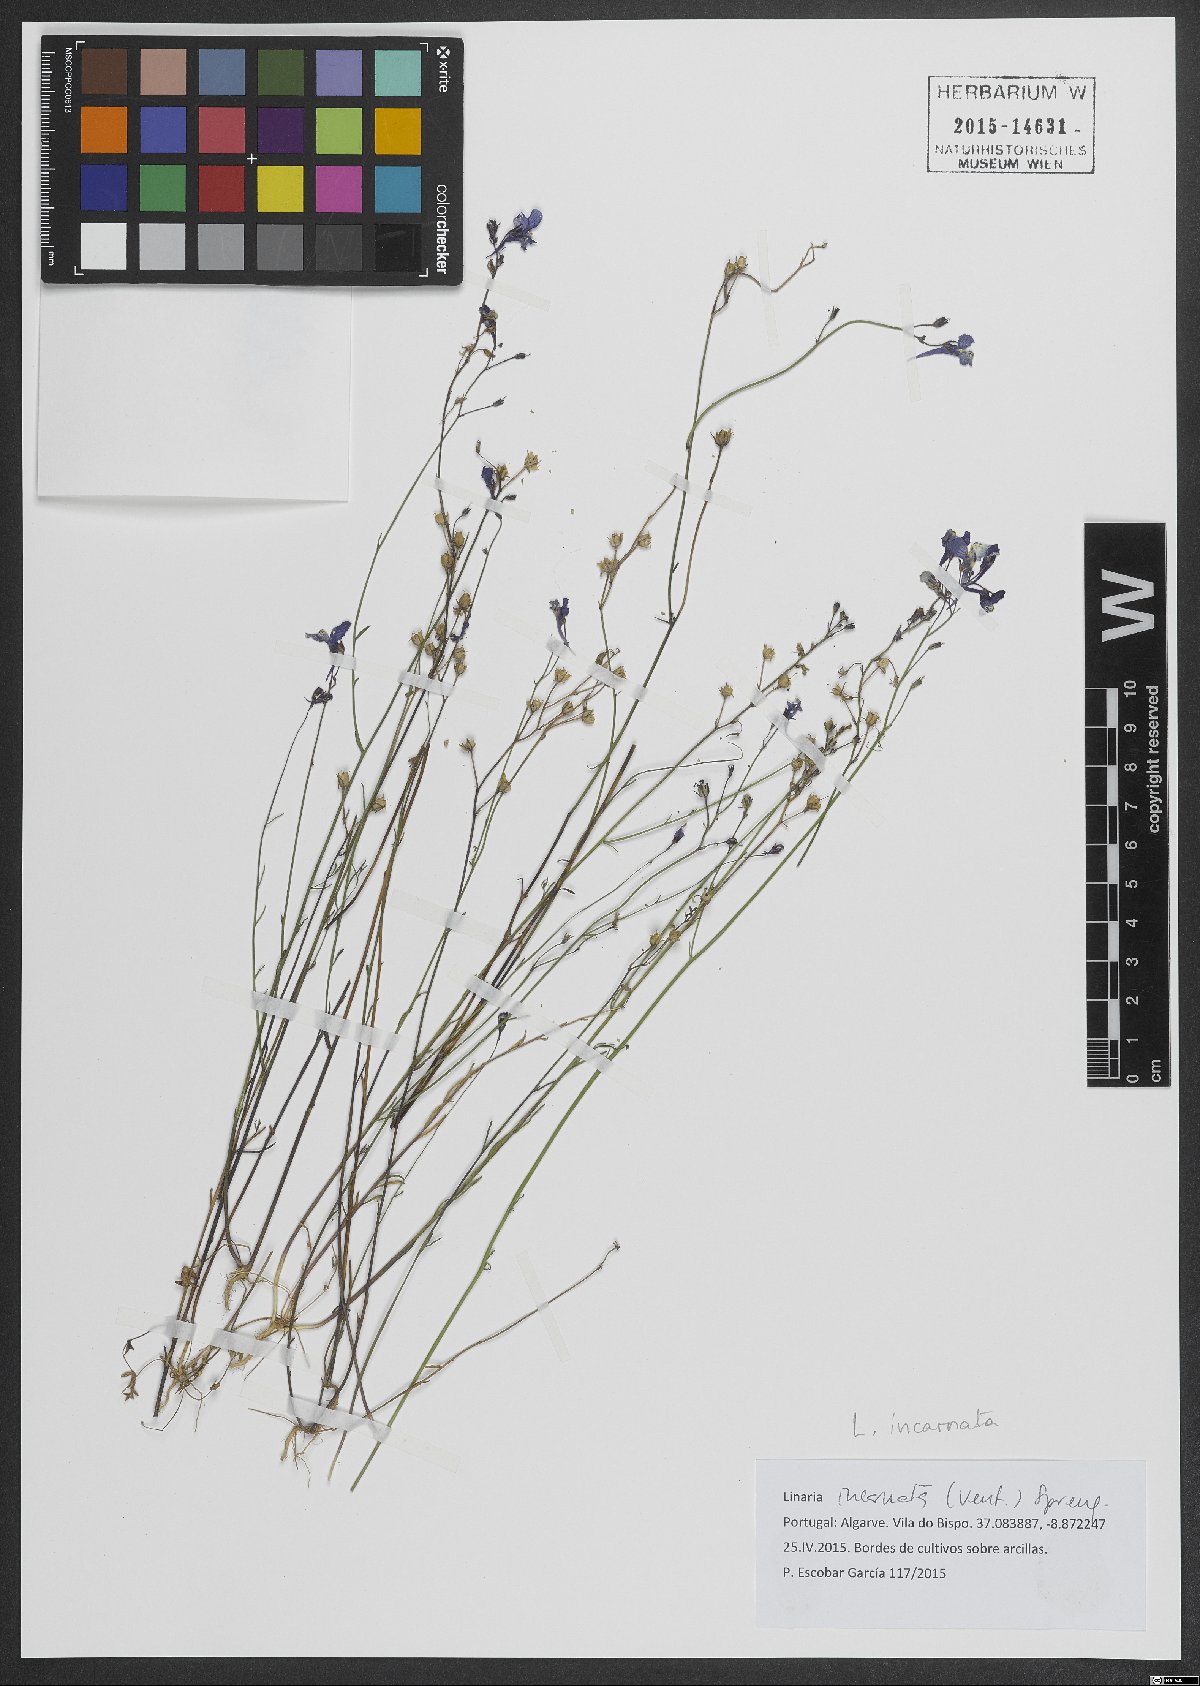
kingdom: Plantae
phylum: Tracheophyta
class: Magnoliopsida
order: Lamiales
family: Plantaginaceae
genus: Linaria
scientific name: Linaria incarnata
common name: Annual toadflax
